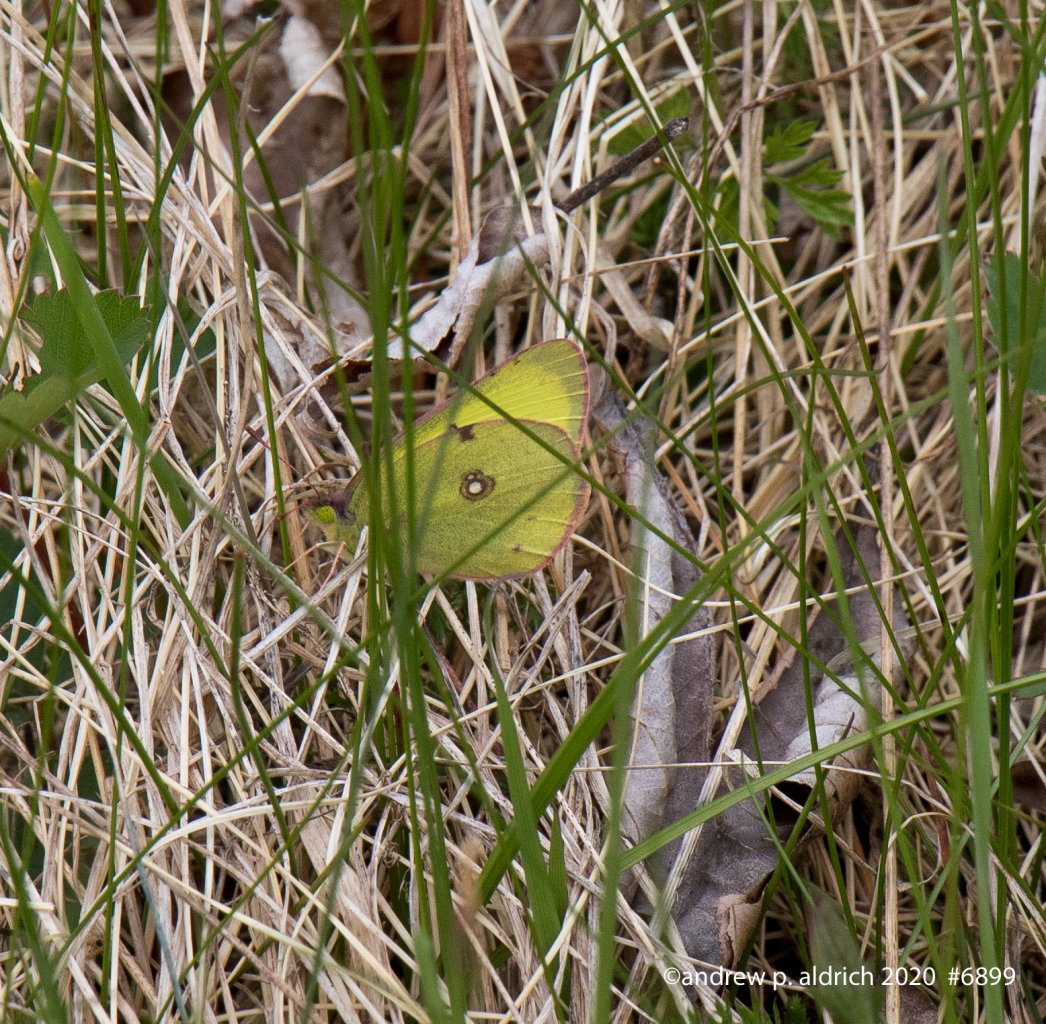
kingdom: Animalia
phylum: Arthropoda
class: Insecta
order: Lepidoptera
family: Pieridae
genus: Colias
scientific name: Colias philodice
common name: Clouded Sulphur
